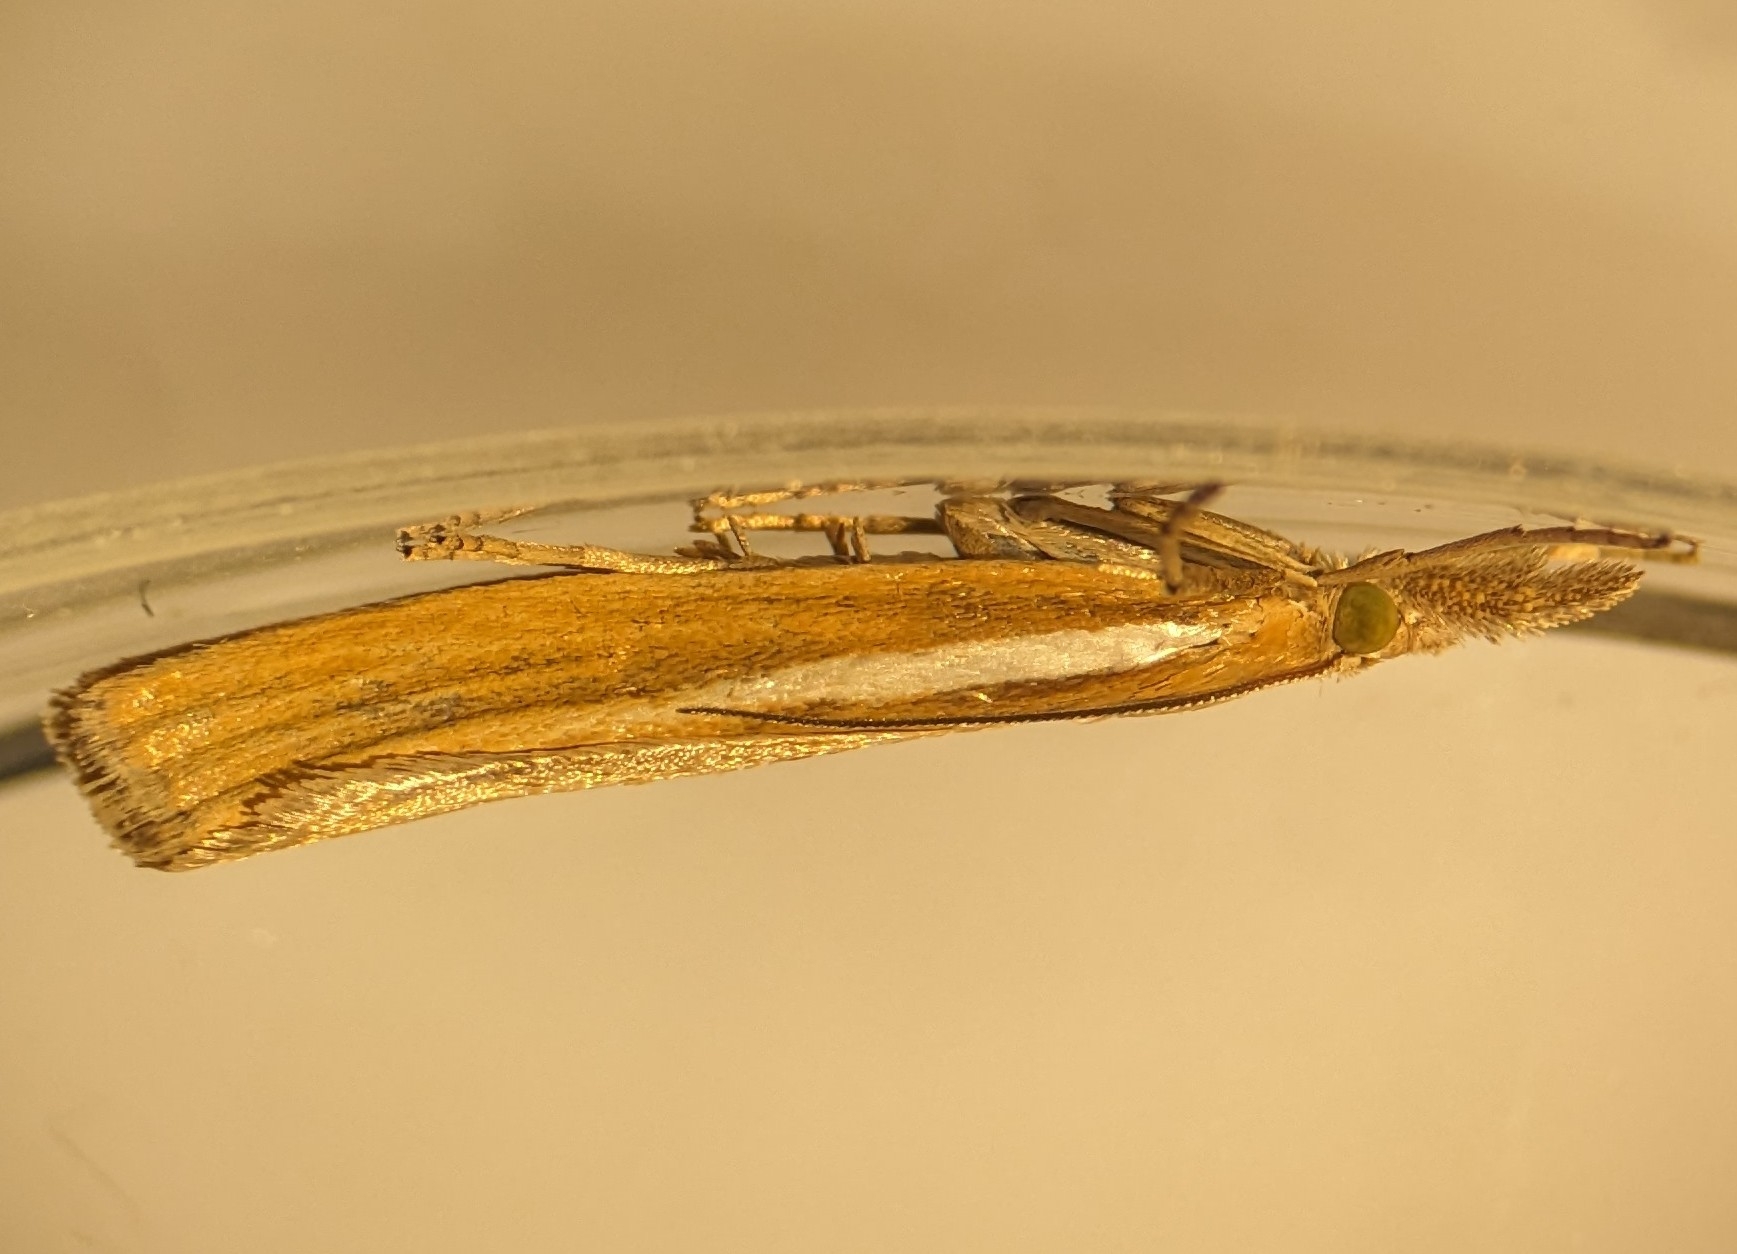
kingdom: Animalia
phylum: Arthropoda
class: Insecta
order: Lepidoptera
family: Crambidae
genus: Agriphila
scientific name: Agriphila tristellus
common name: Okkergult græsmøl
